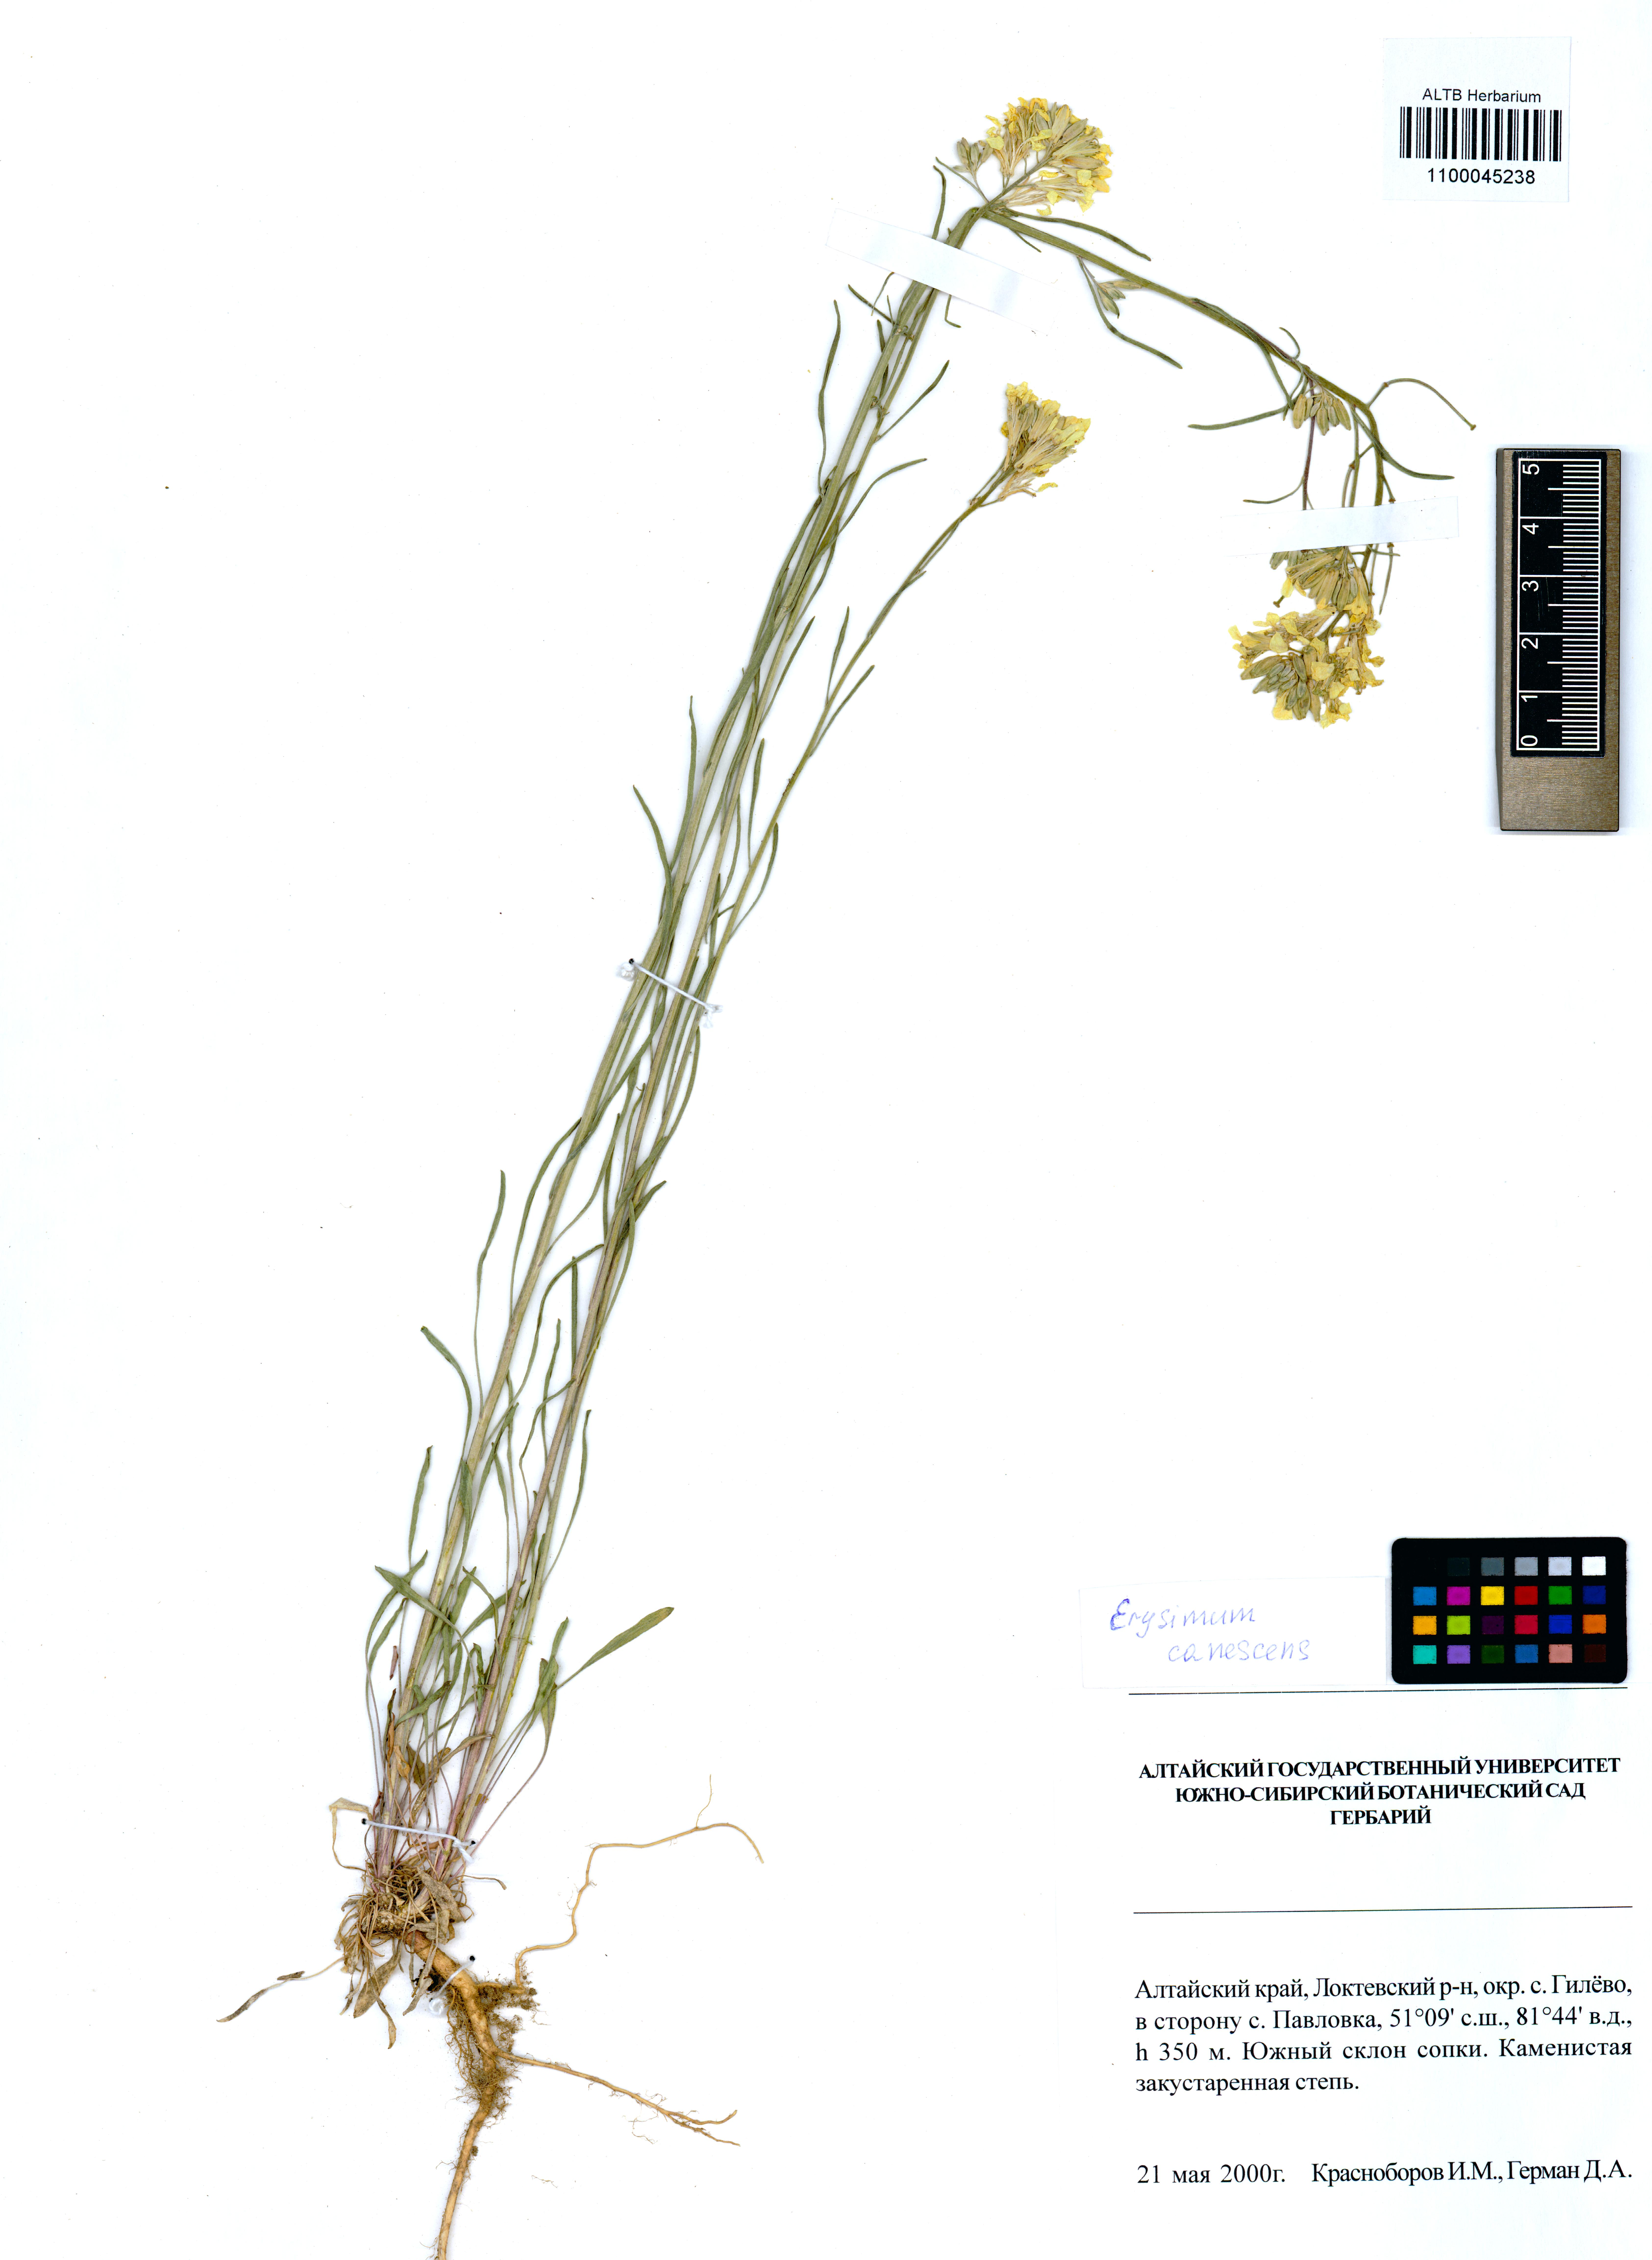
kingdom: Plantae
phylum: Tracheophyta
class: Magnoliopsida
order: Brassicales
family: Brassicaceae
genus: Erysimum
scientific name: Erysimum canescens
